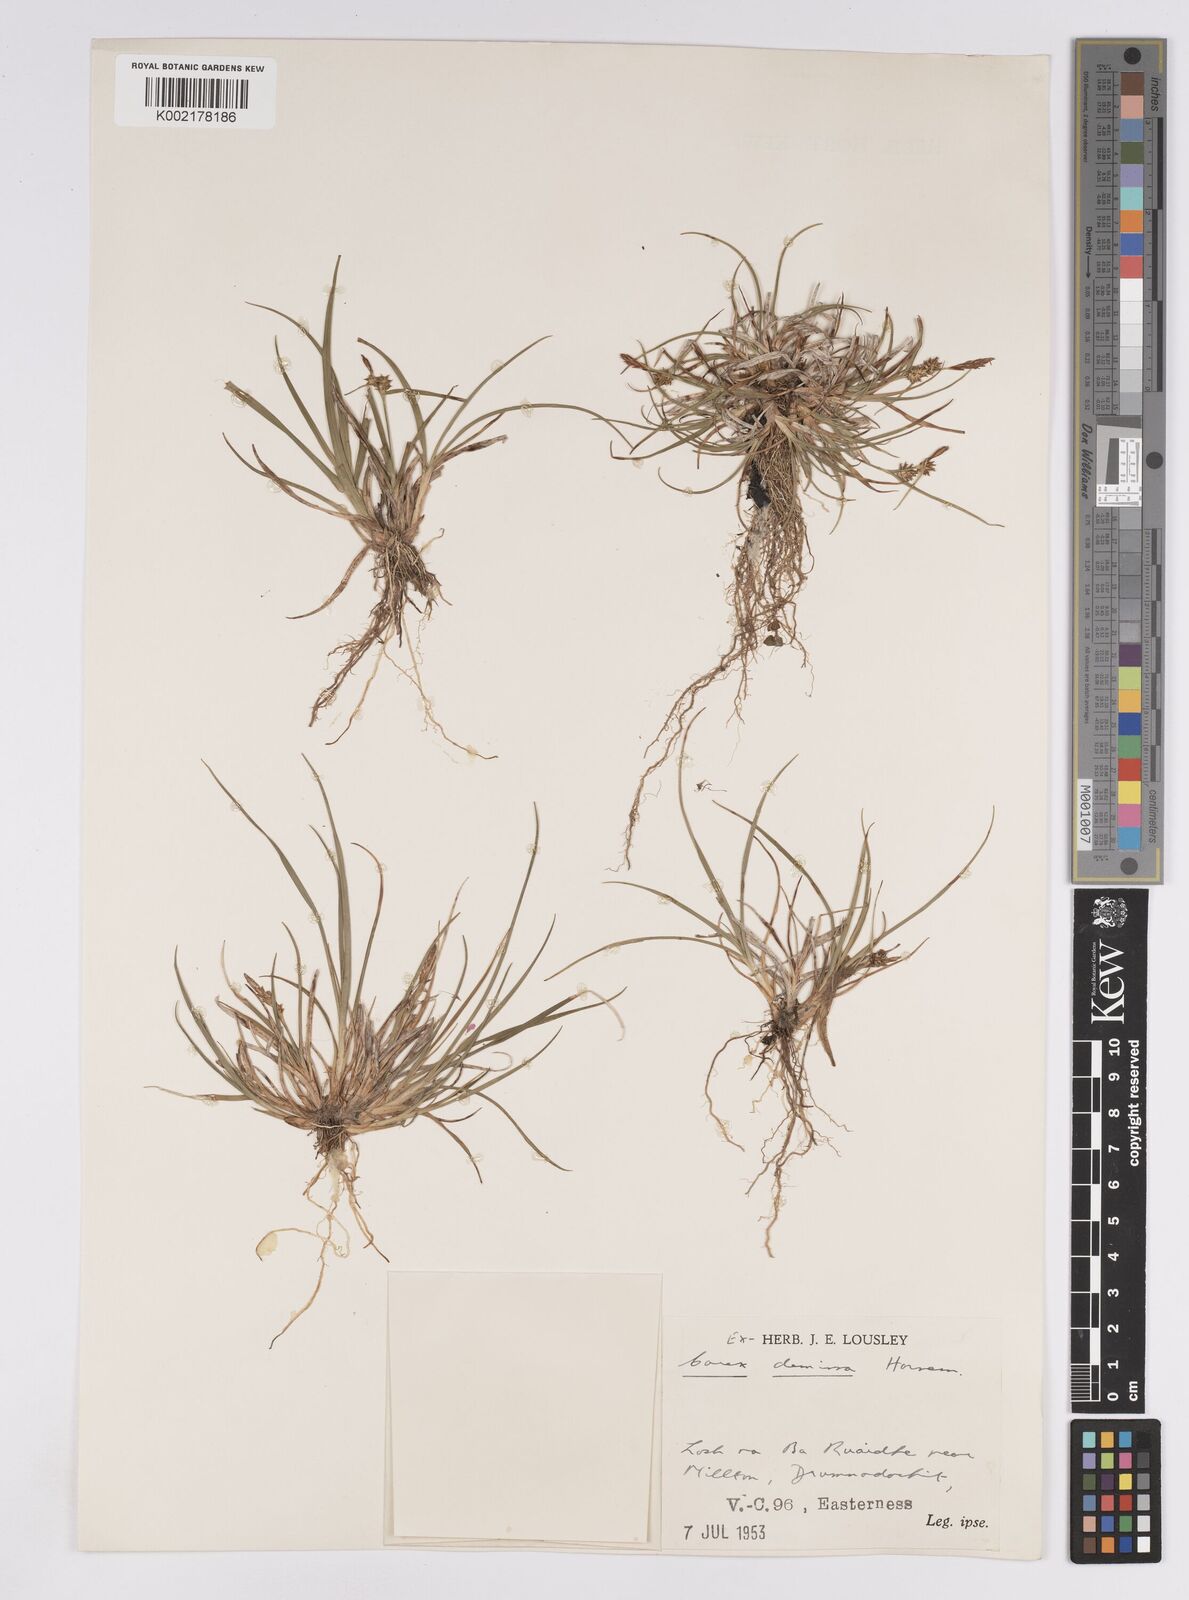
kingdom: Plantae
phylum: Tracheophyta
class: Liliopsida
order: Poales
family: Cyperaceae
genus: Carex
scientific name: Carex demissa
